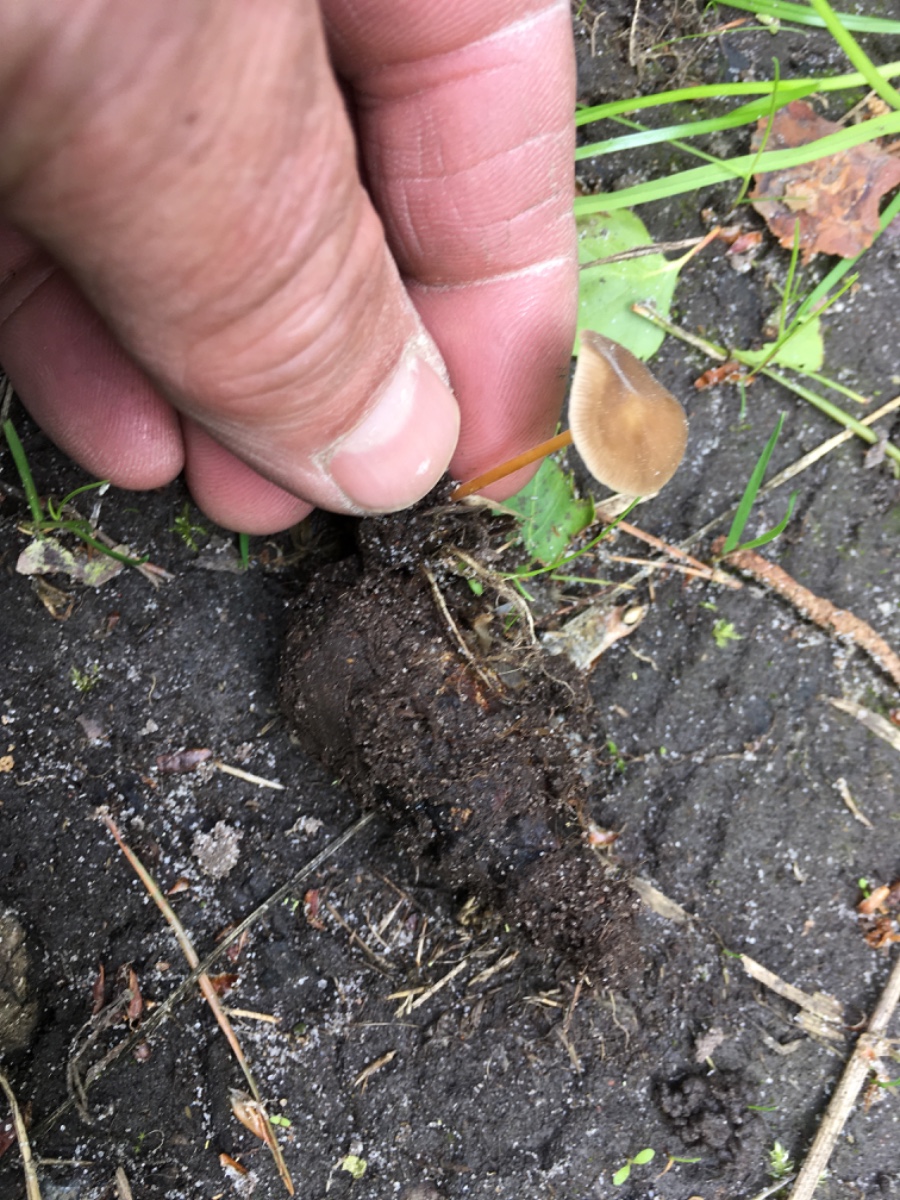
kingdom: Fungi
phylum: Basidiomycota
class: Agaricomycetes
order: Agaricales
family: Marasmiaceae
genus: Baeospora
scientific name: Baeospora myosura
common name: koglebruskhat
